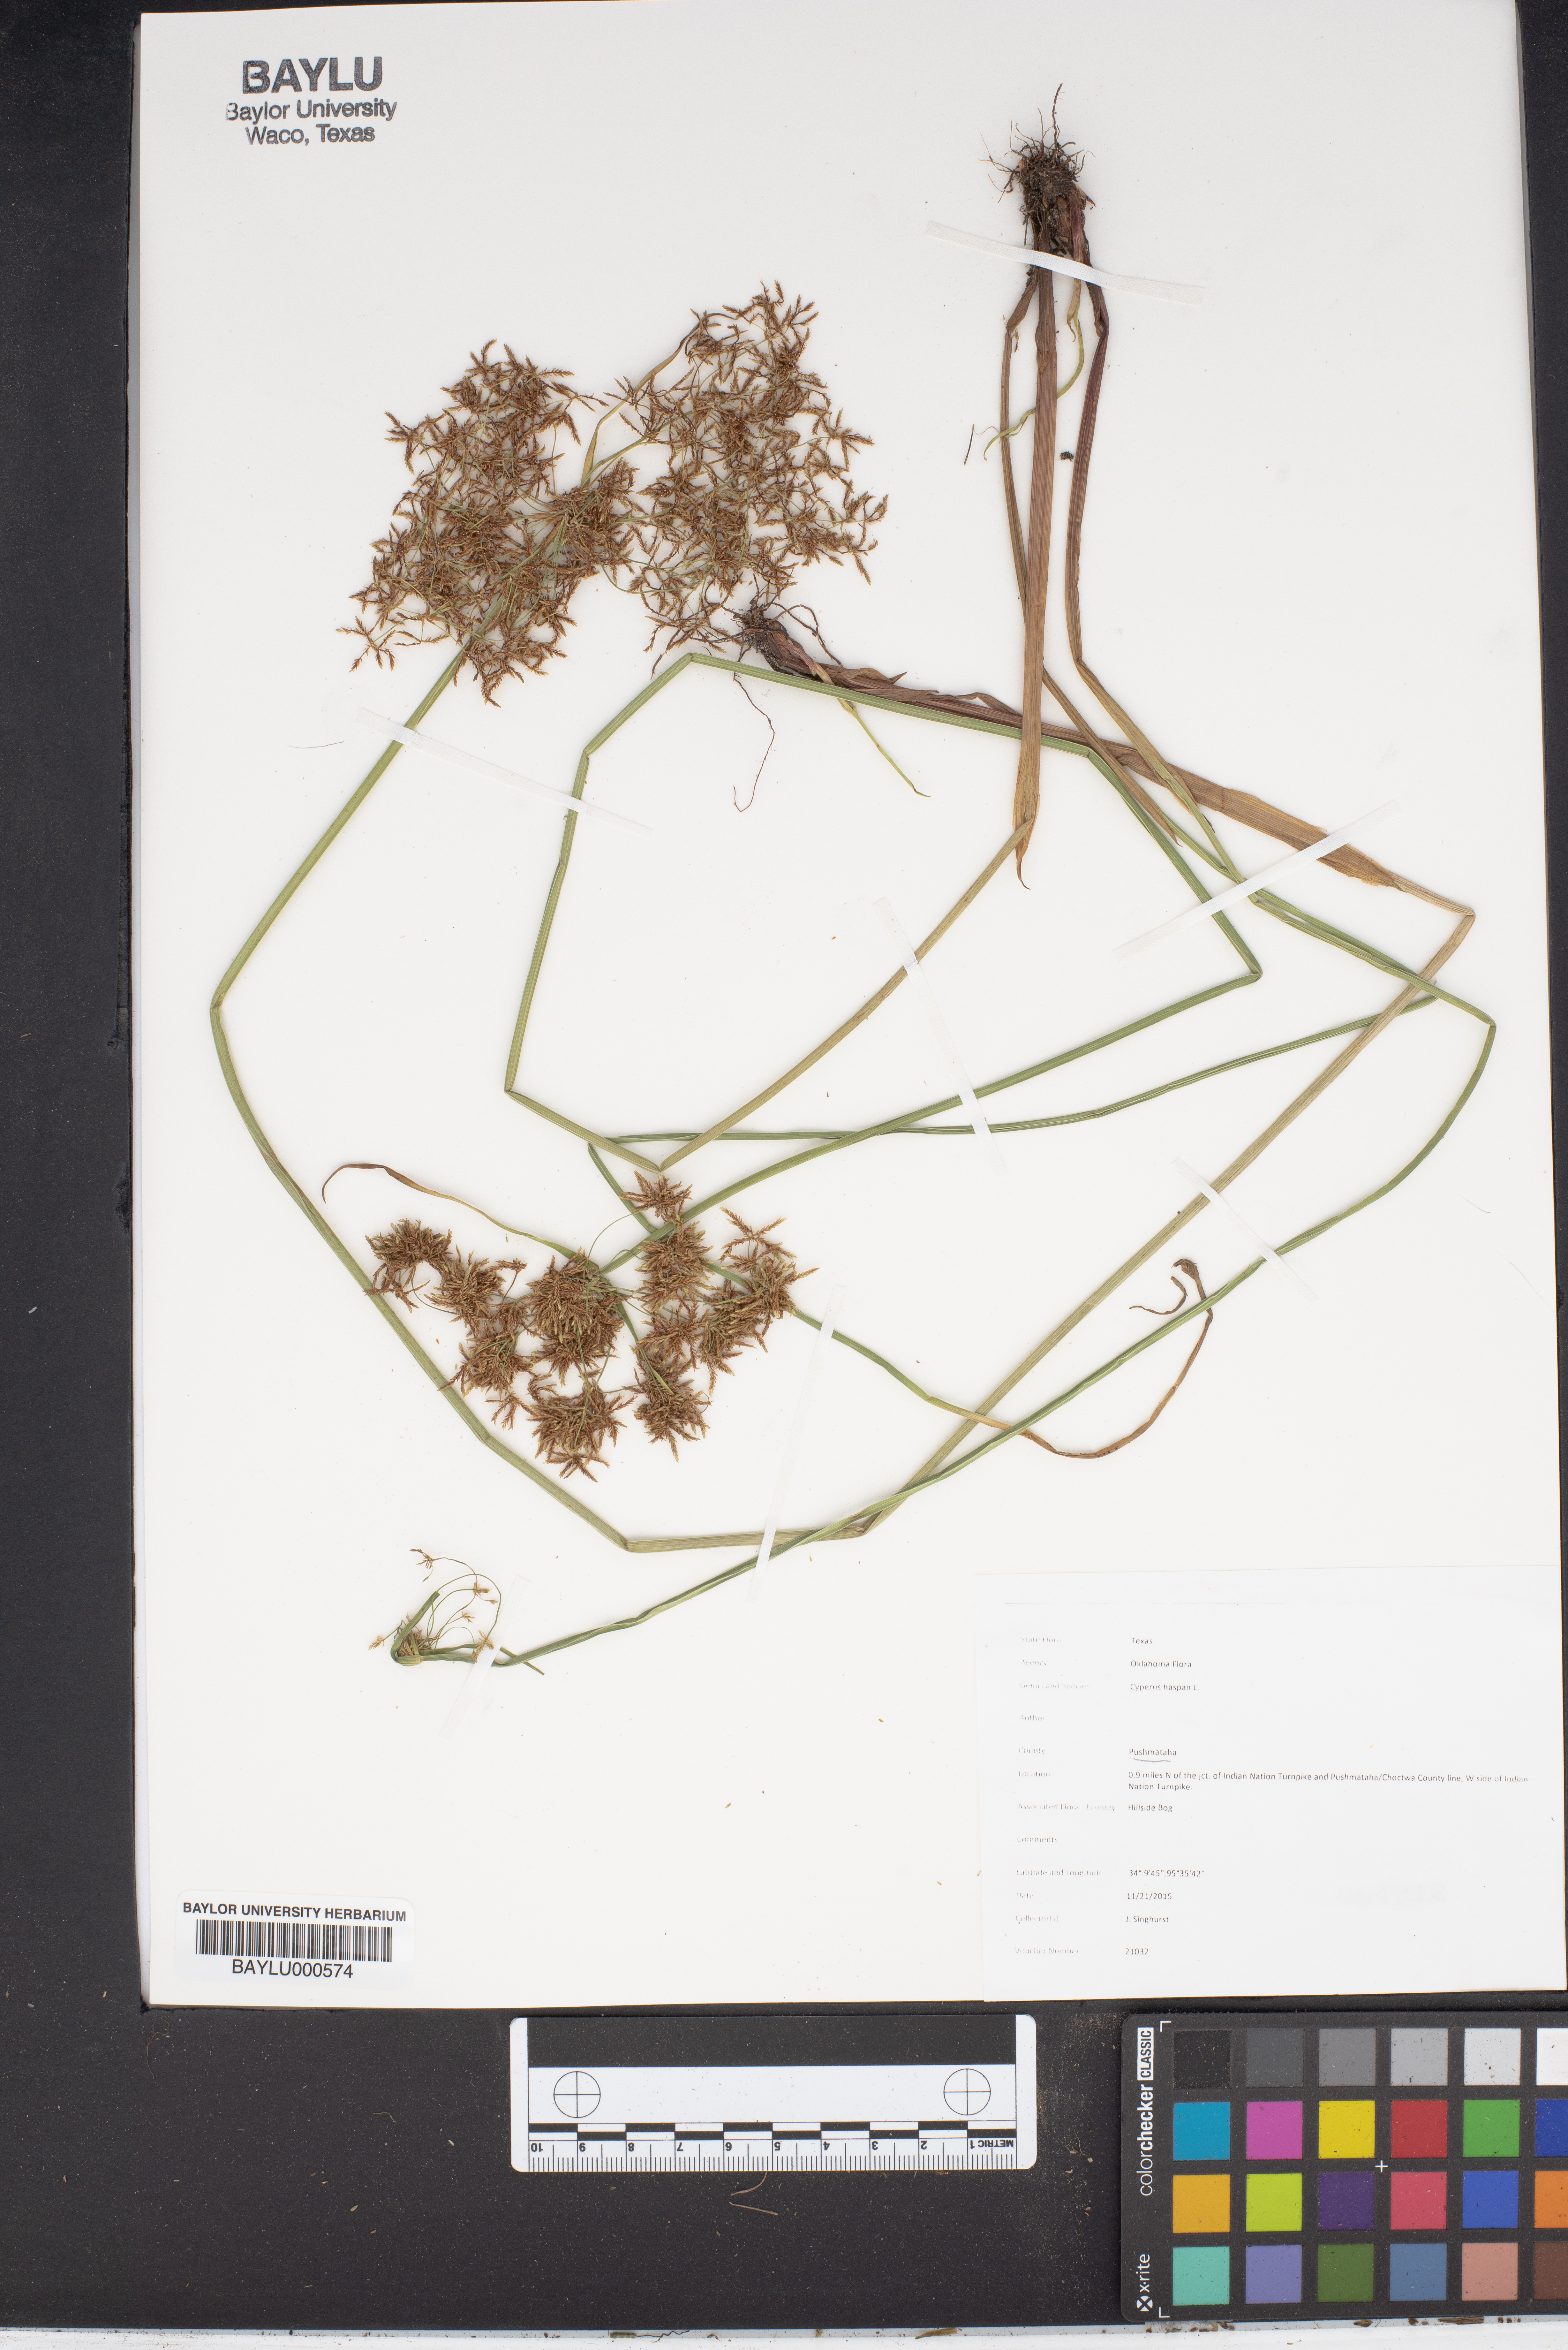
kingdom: Plantae
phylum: Tracheophyta
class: Liliopsida
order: Poales
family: Cyperaceae
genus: Cyperus
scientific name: Cyperus haspan
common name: Haspan flatsedge
